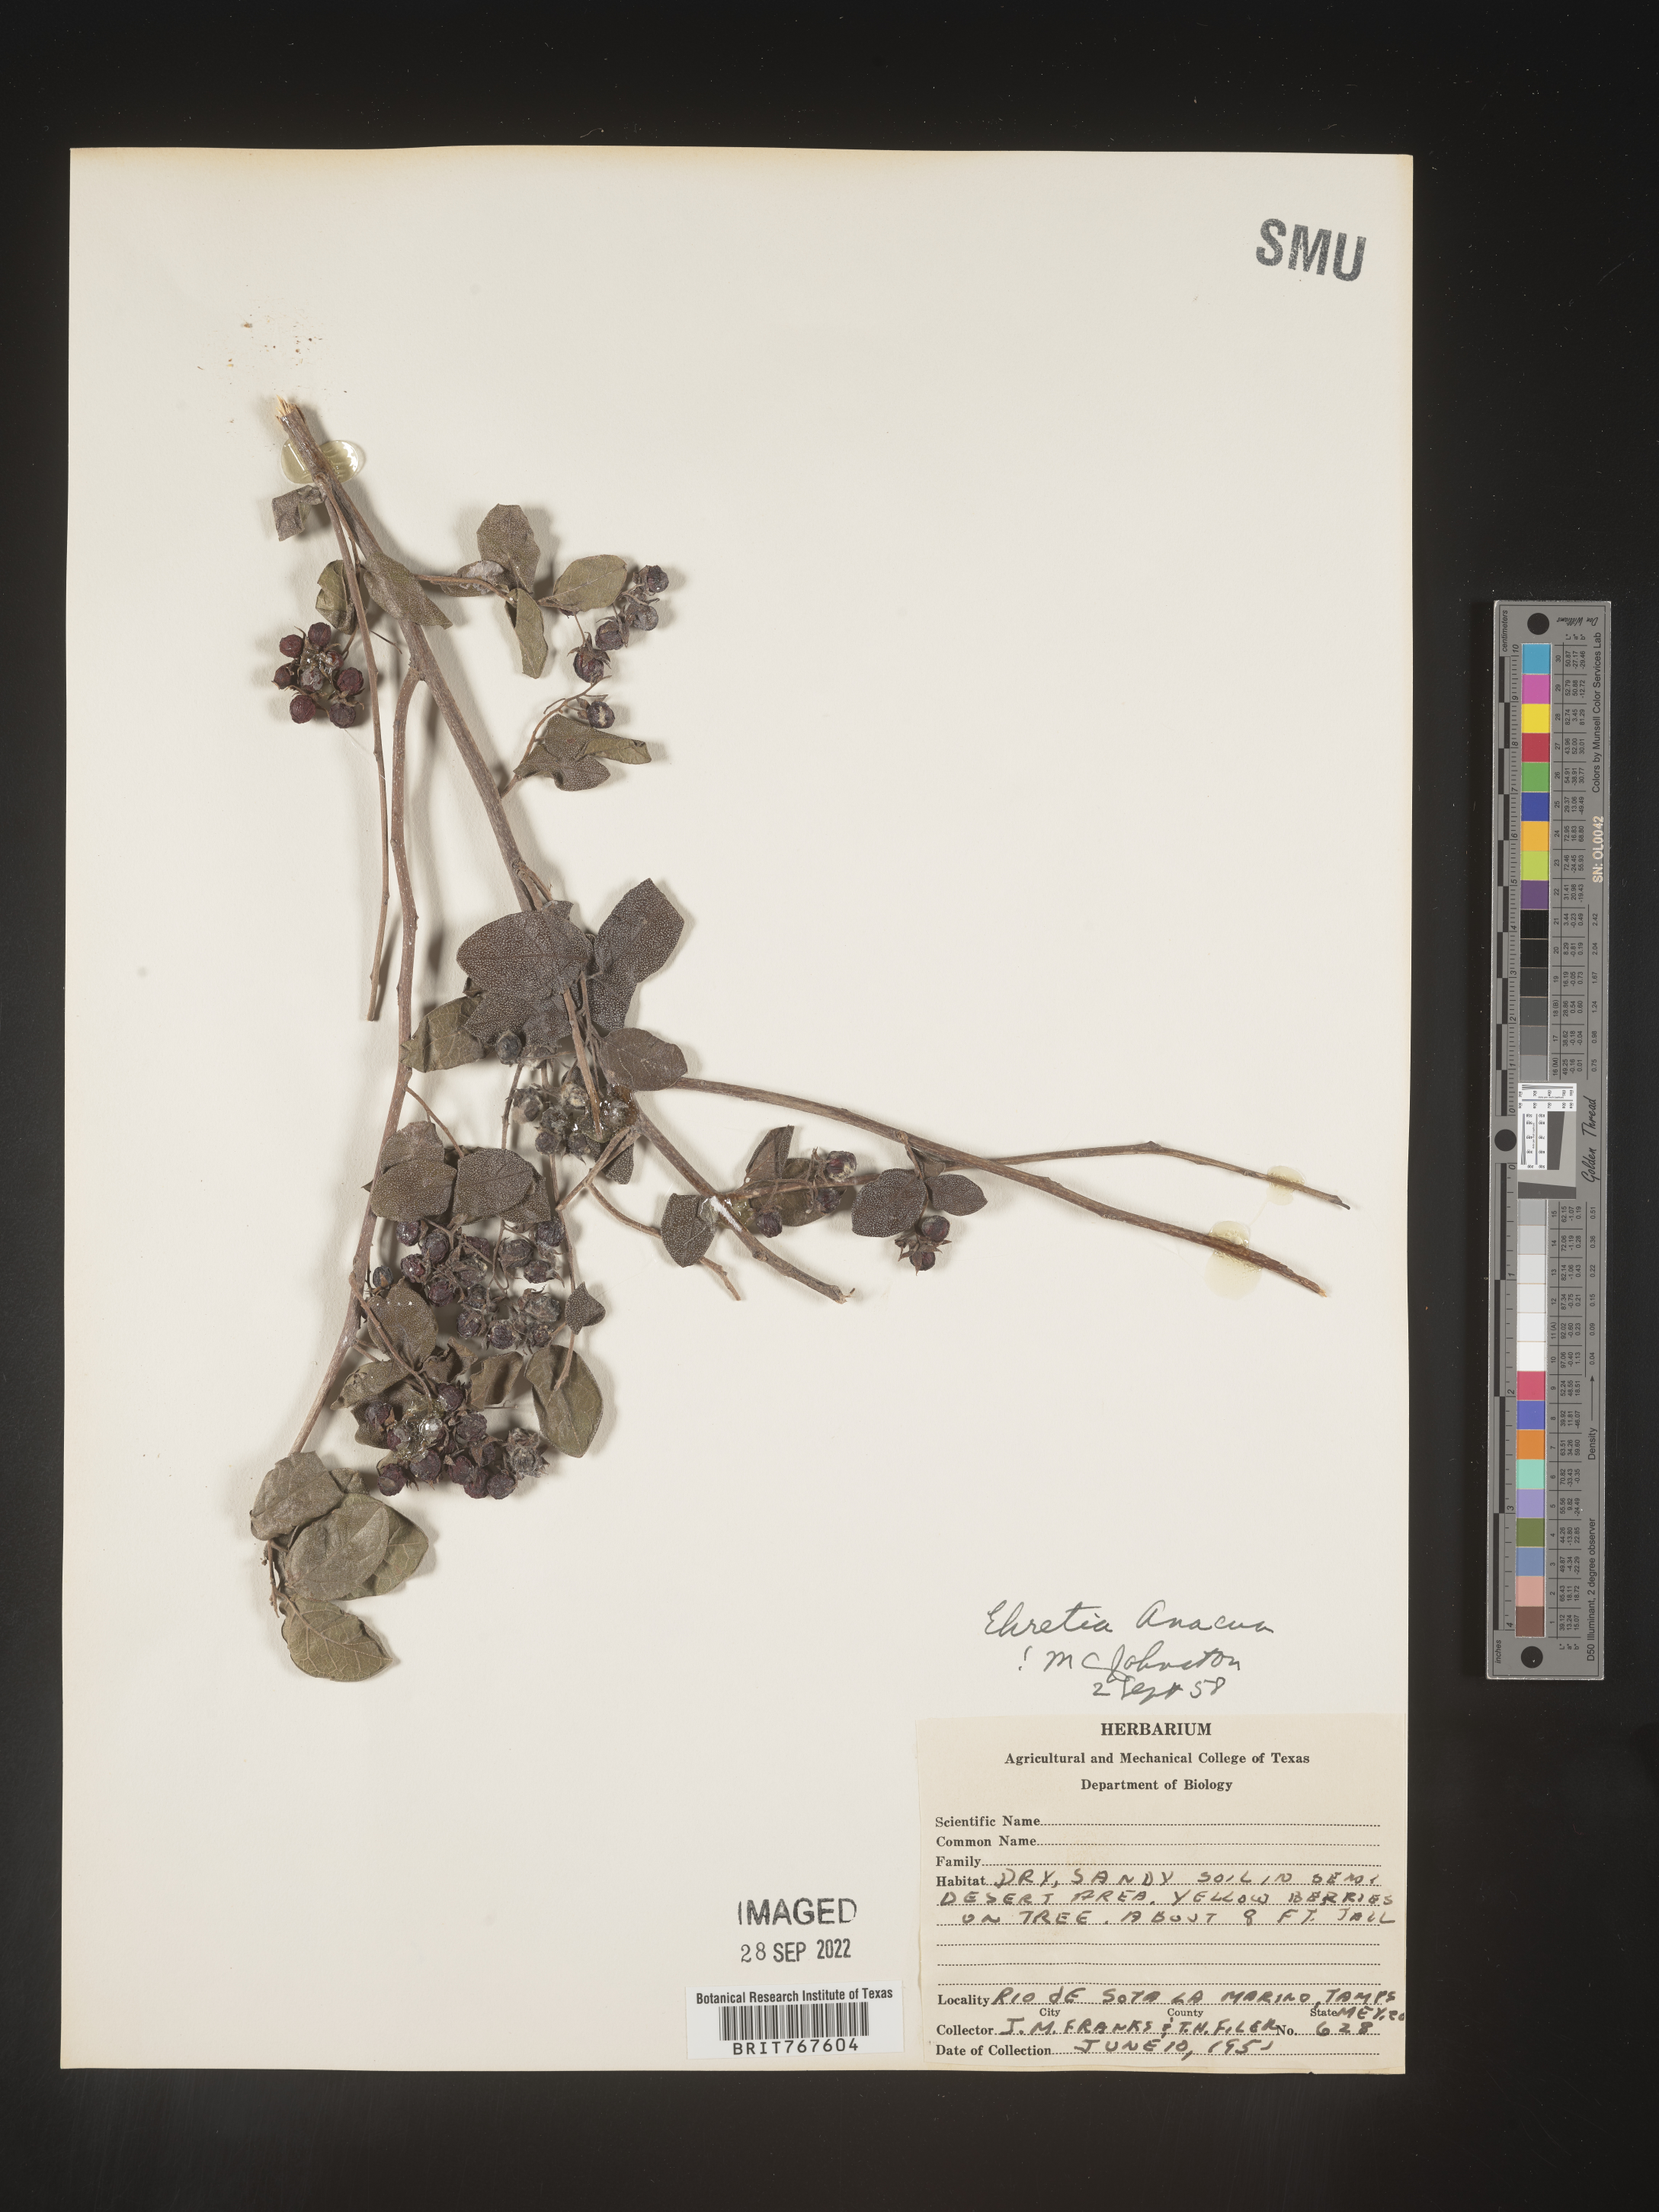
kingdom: Plantae
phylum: Tracheophyta
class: Magnoliopsida
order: Boraginales
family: Ehretiaceae
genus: Ehretia
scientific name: Ehretia
